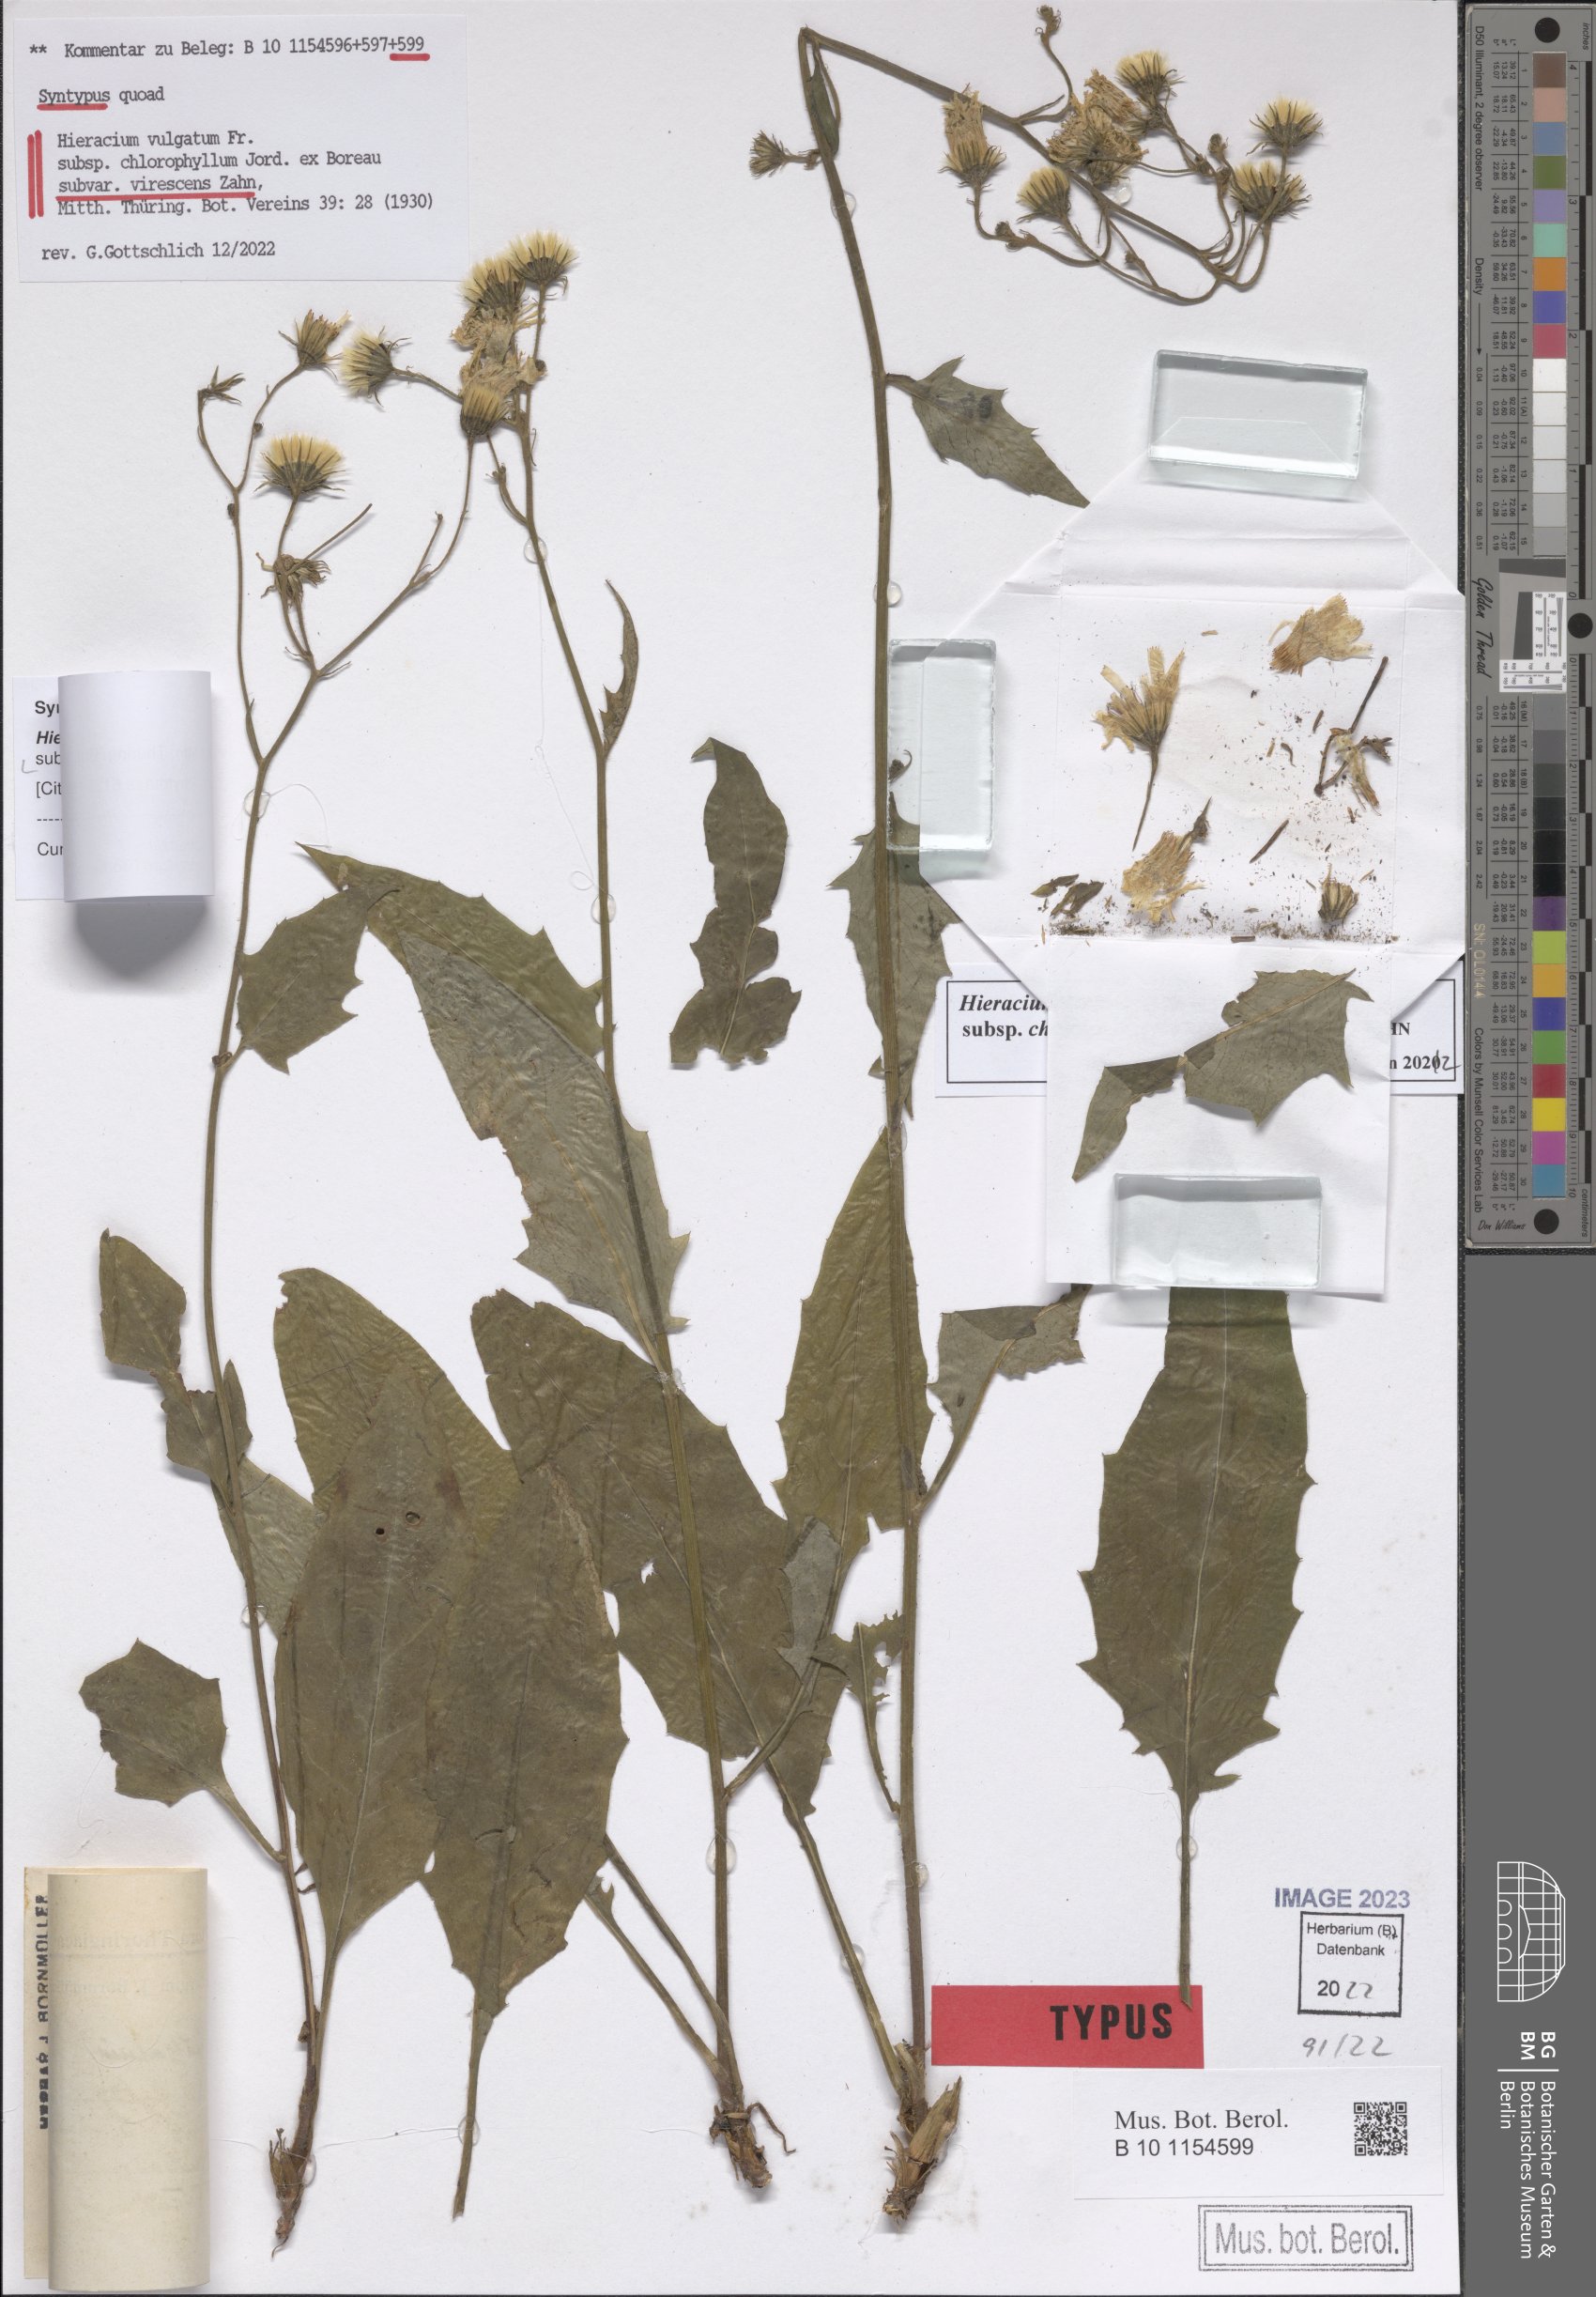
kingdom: Plantae
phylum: Tracheophyta
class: Magnoliopsida
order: Asterales
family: Asteraceae
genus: Hieracium
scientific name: Hieracium vulgatum
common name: Common hawkweed
